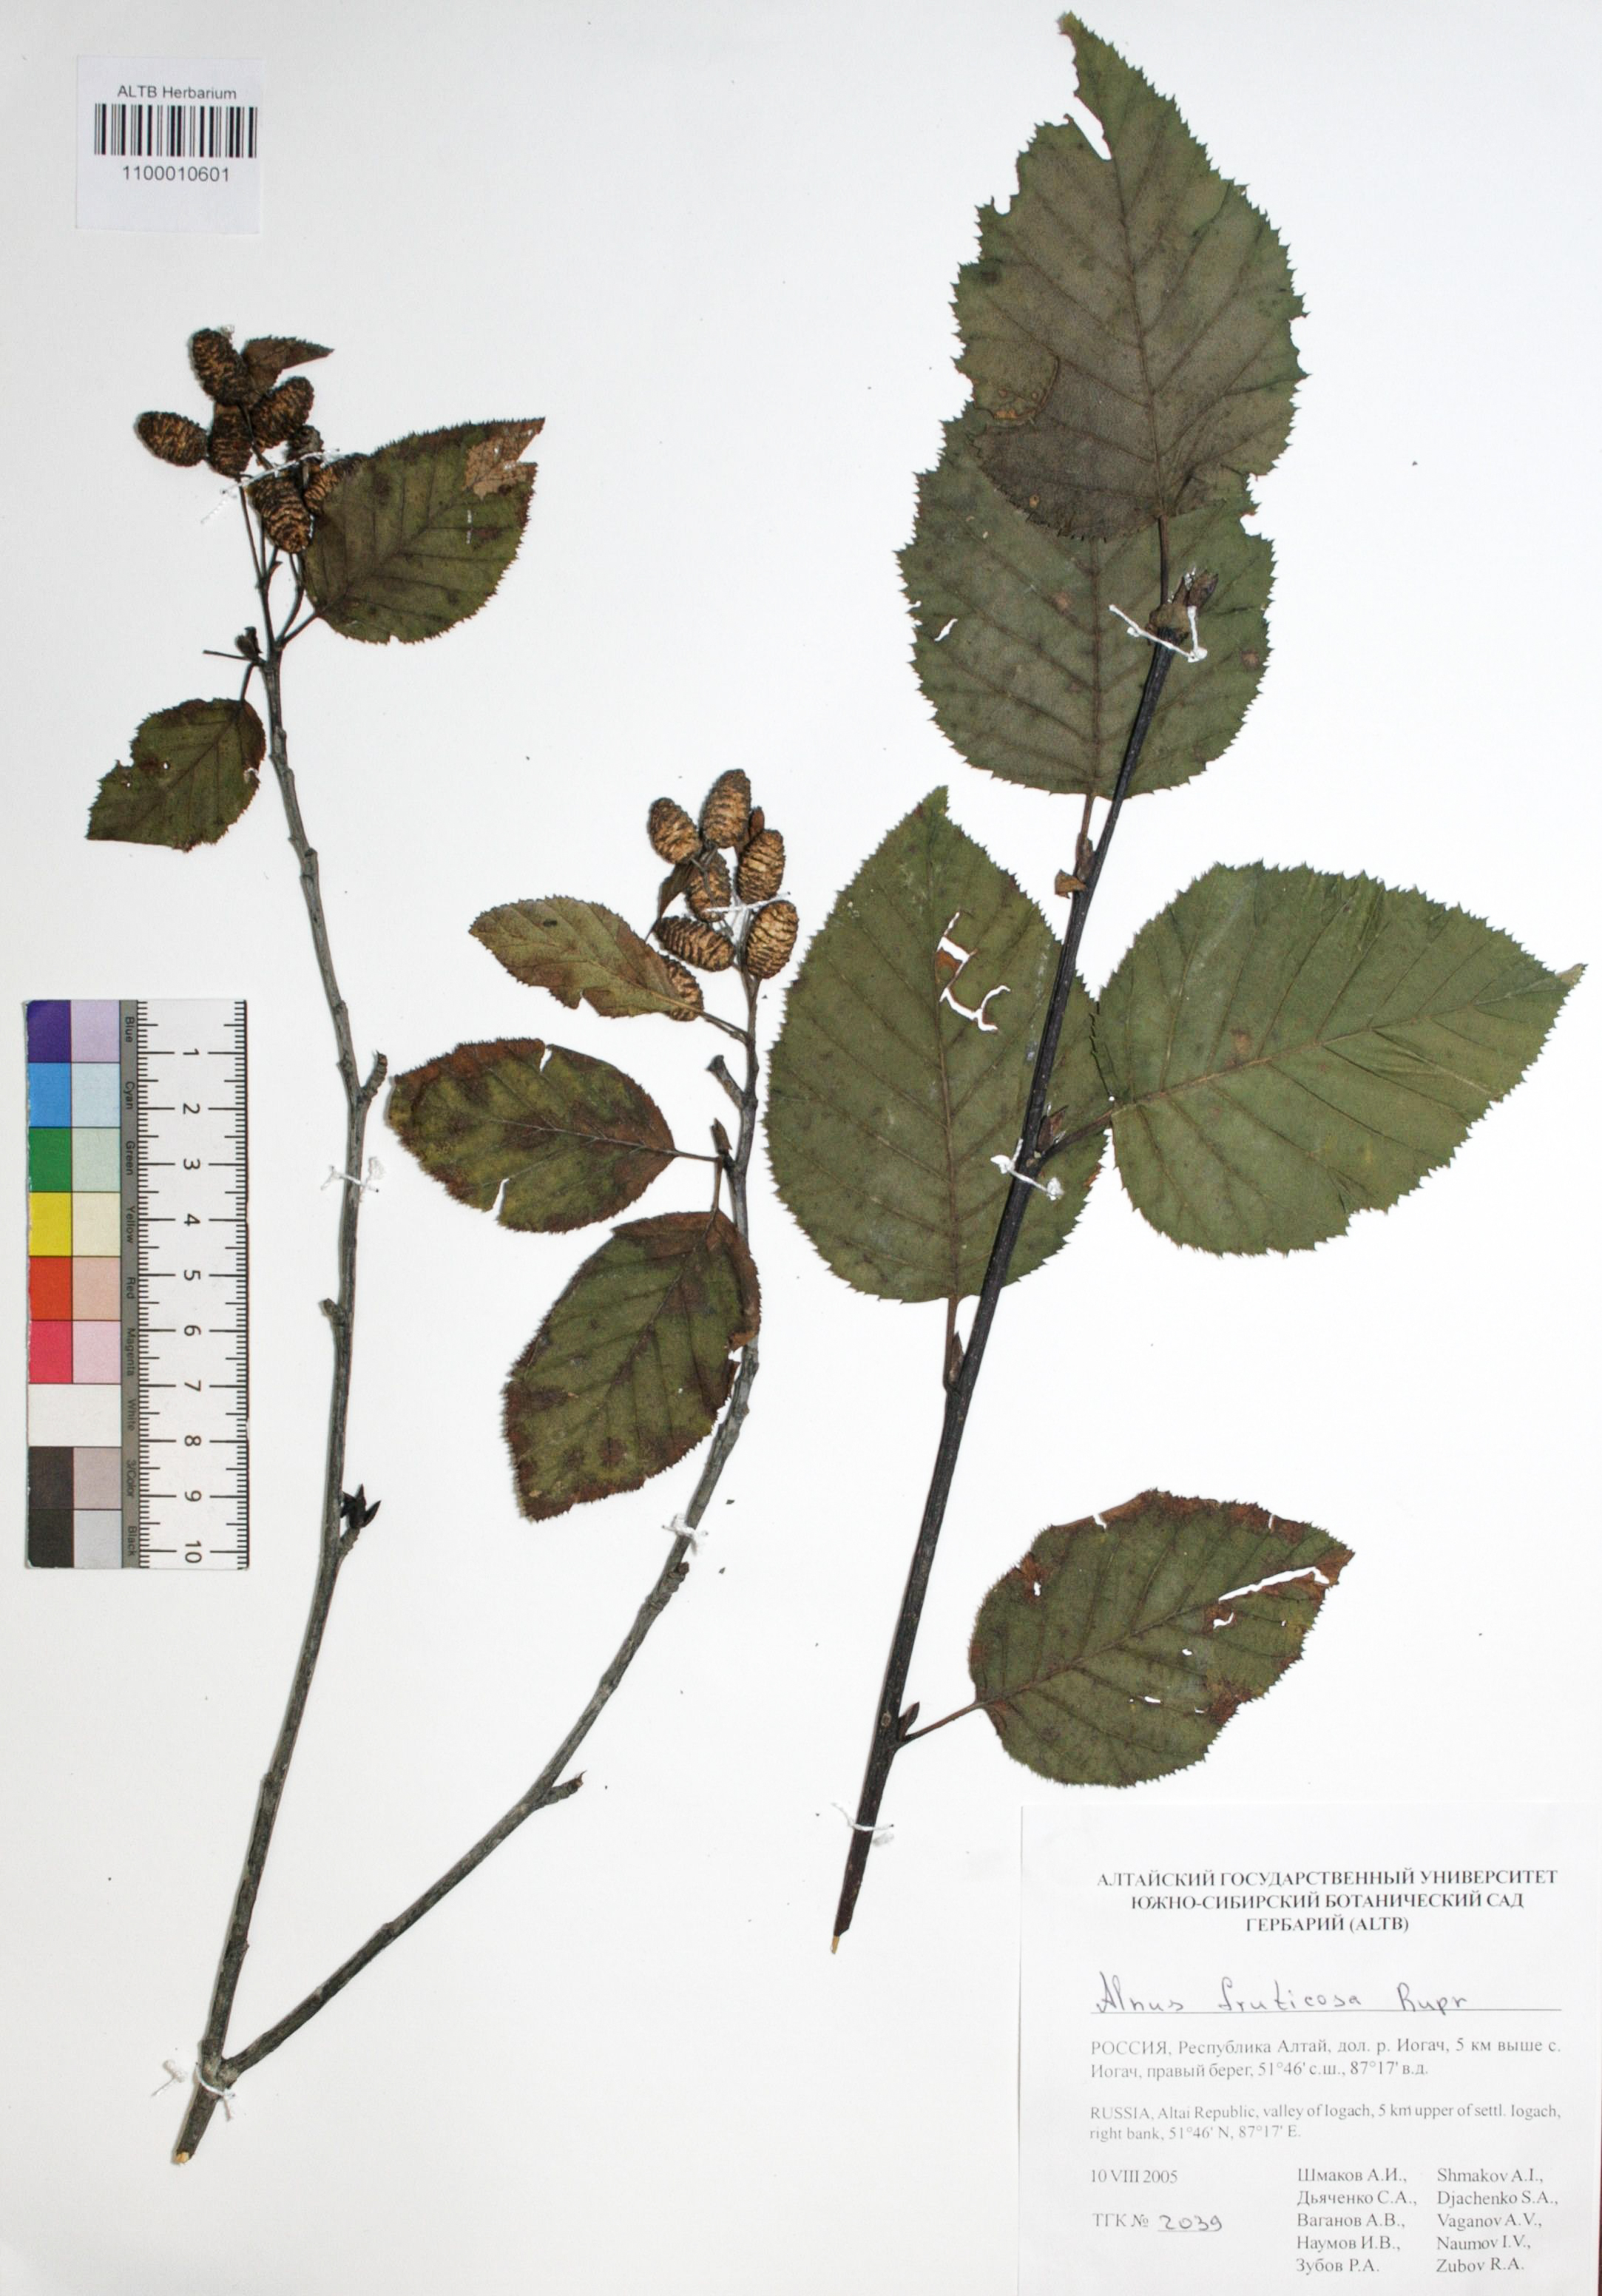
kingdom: Plantae
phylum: Tracheophyta
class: Magnoliopsida
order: Fagales
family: Betulaceae
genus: Alnus
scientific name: Alnus alnobetula
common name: Green alder
